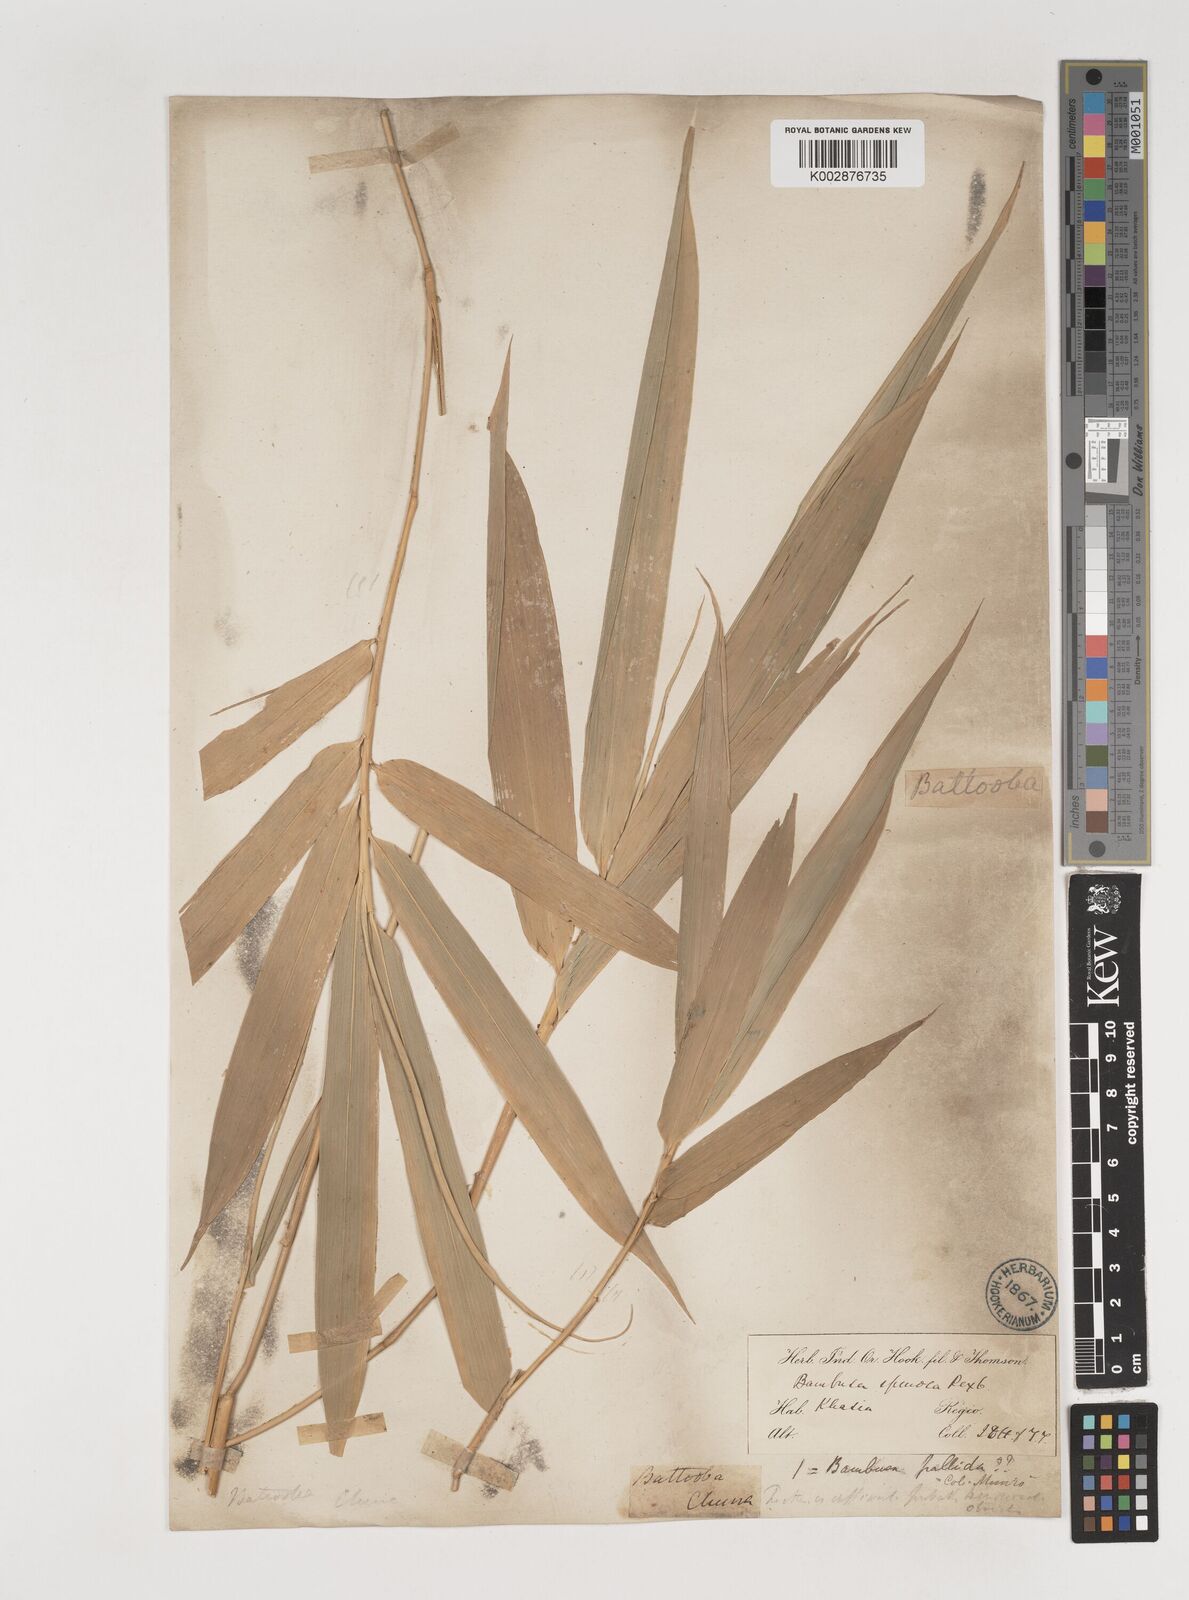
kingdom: Plantae
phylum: Tracheophyta
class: Liliopsida
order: Poales
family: Poaceae
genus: Bambusa
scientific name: Bambusa pallida
